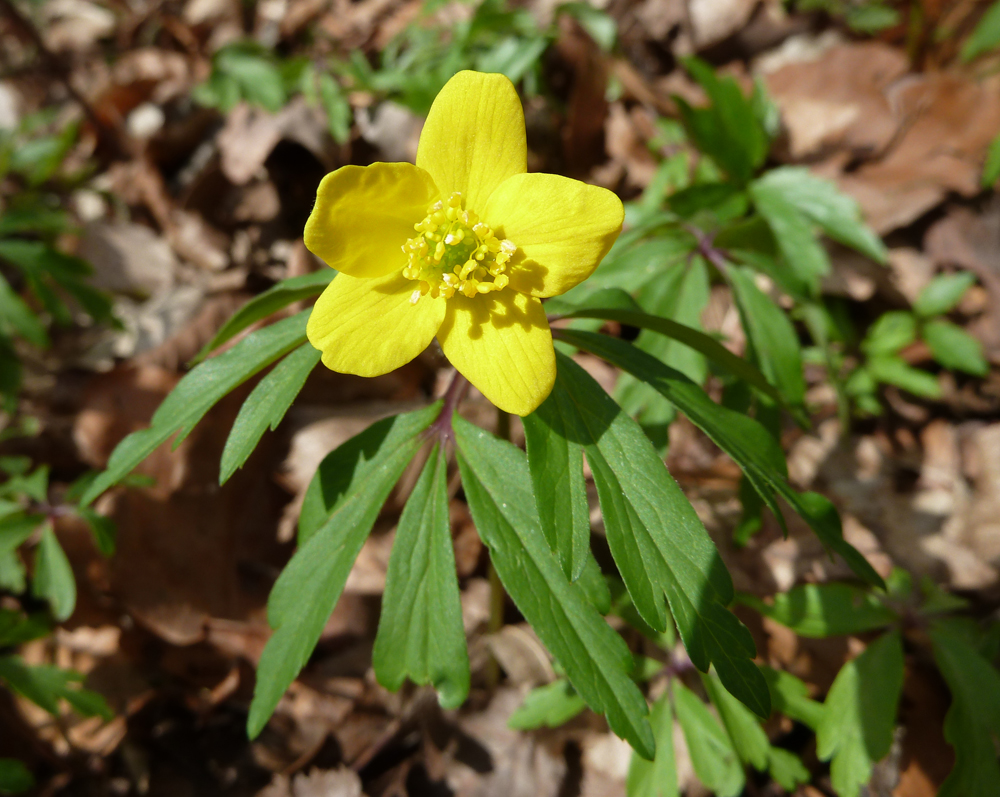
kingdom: Plantae
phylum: Tracheophyta
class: Magnoliopsida
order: Ranunculales
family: Ranunculaceae
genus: Anemone
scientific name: Anemone ranunculoides
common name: Yellow anemone
